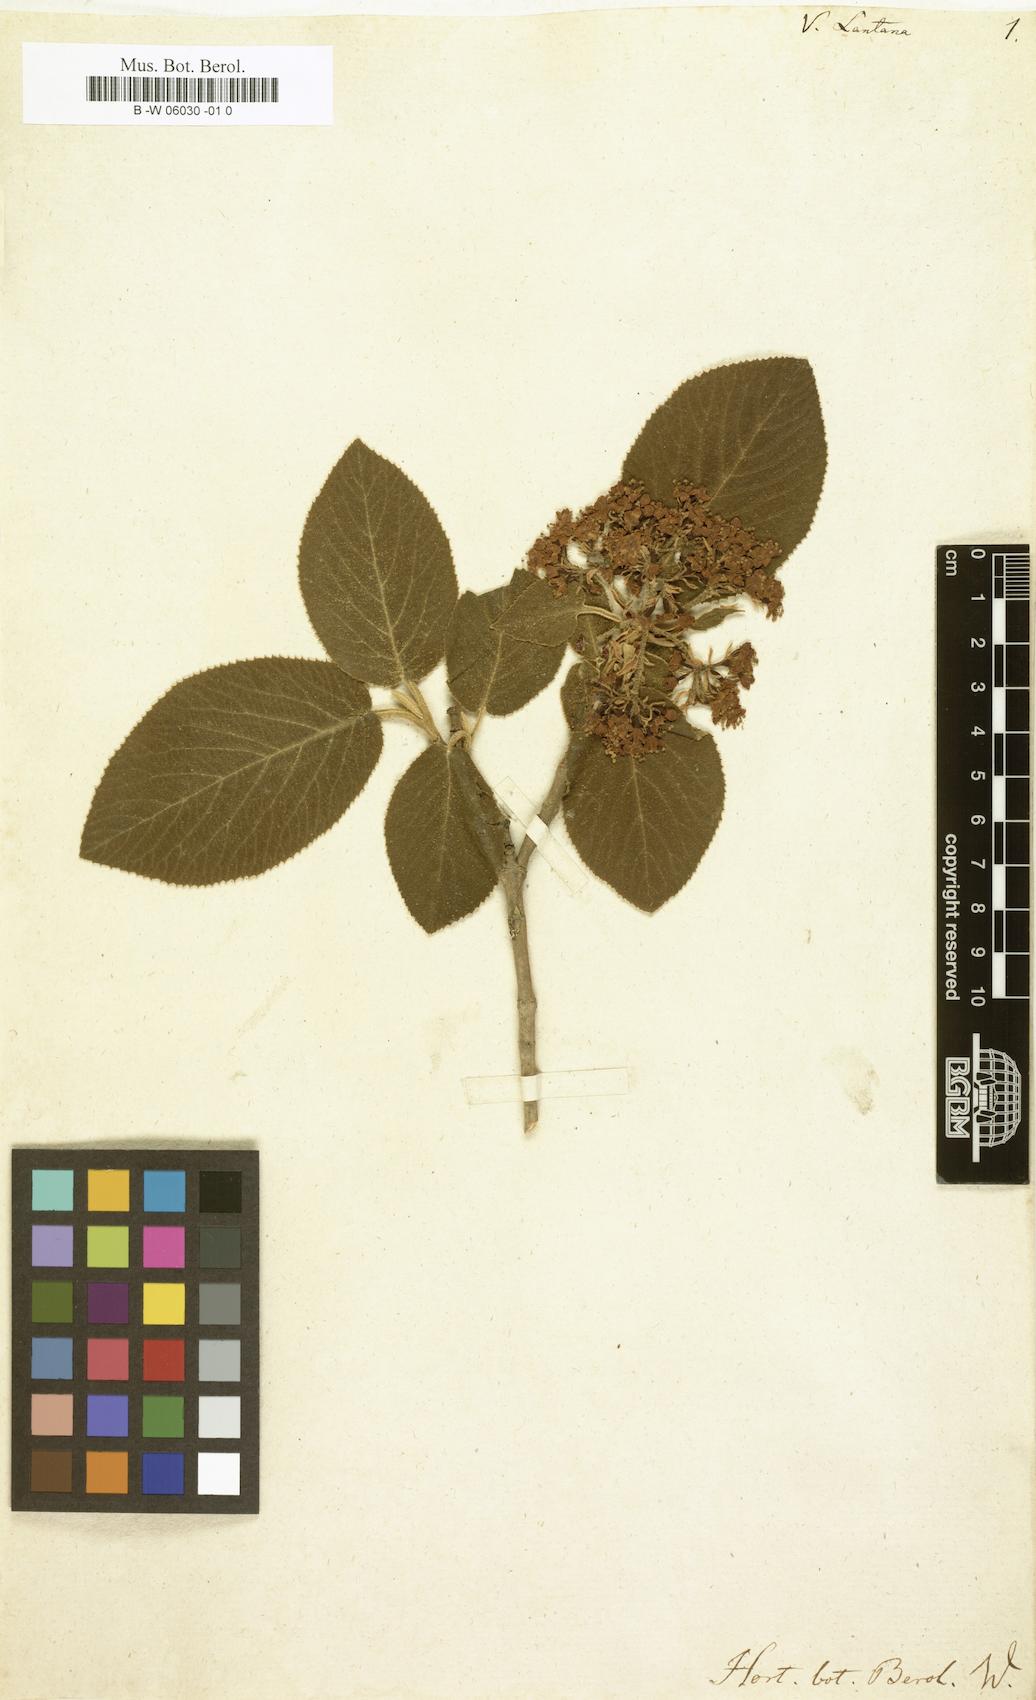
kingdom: Plantae
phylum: Tracheophyta
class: Magnoliopsida
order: Dipsacales
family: Viburnaceae
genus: Viburnum
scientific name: Viburnum lantana
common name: Wayfaring tree
